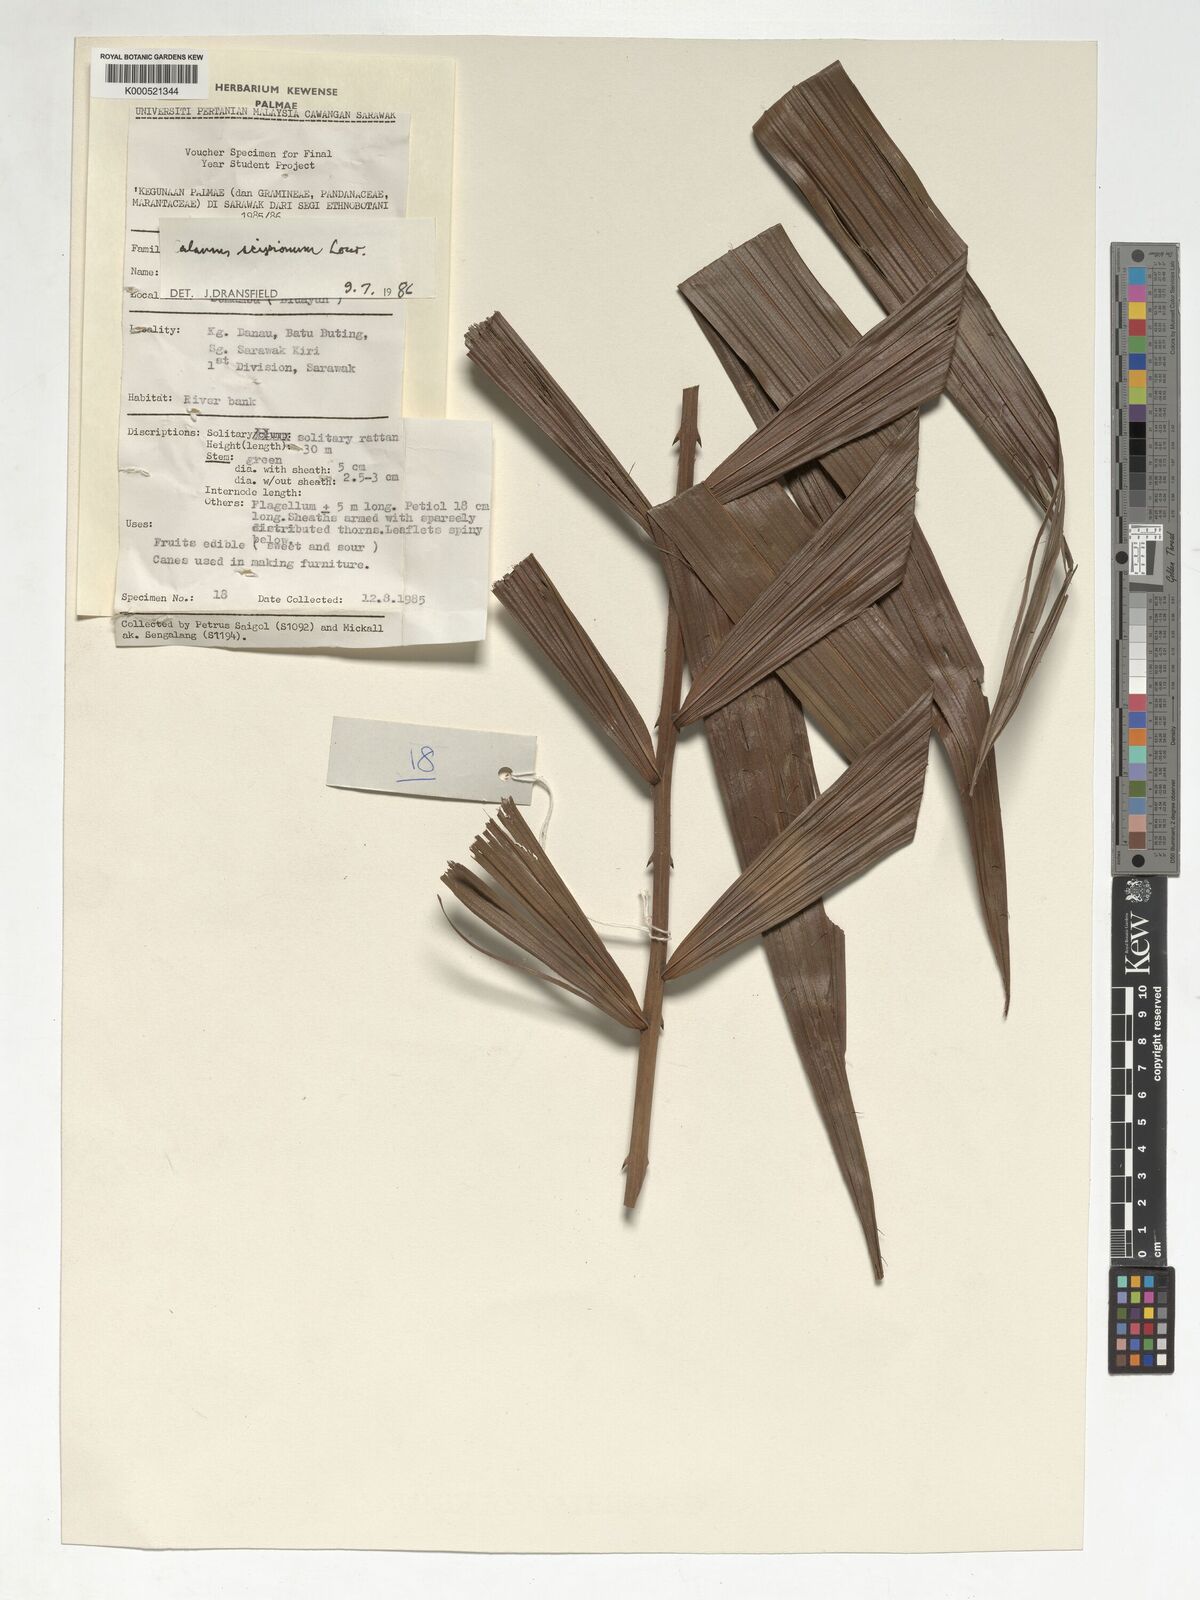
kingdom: Plantae
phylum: Tracheophyta
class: Liliopsida
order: Arecales
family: Arecaceae
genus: Calamus
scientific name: Calamus scipionum
